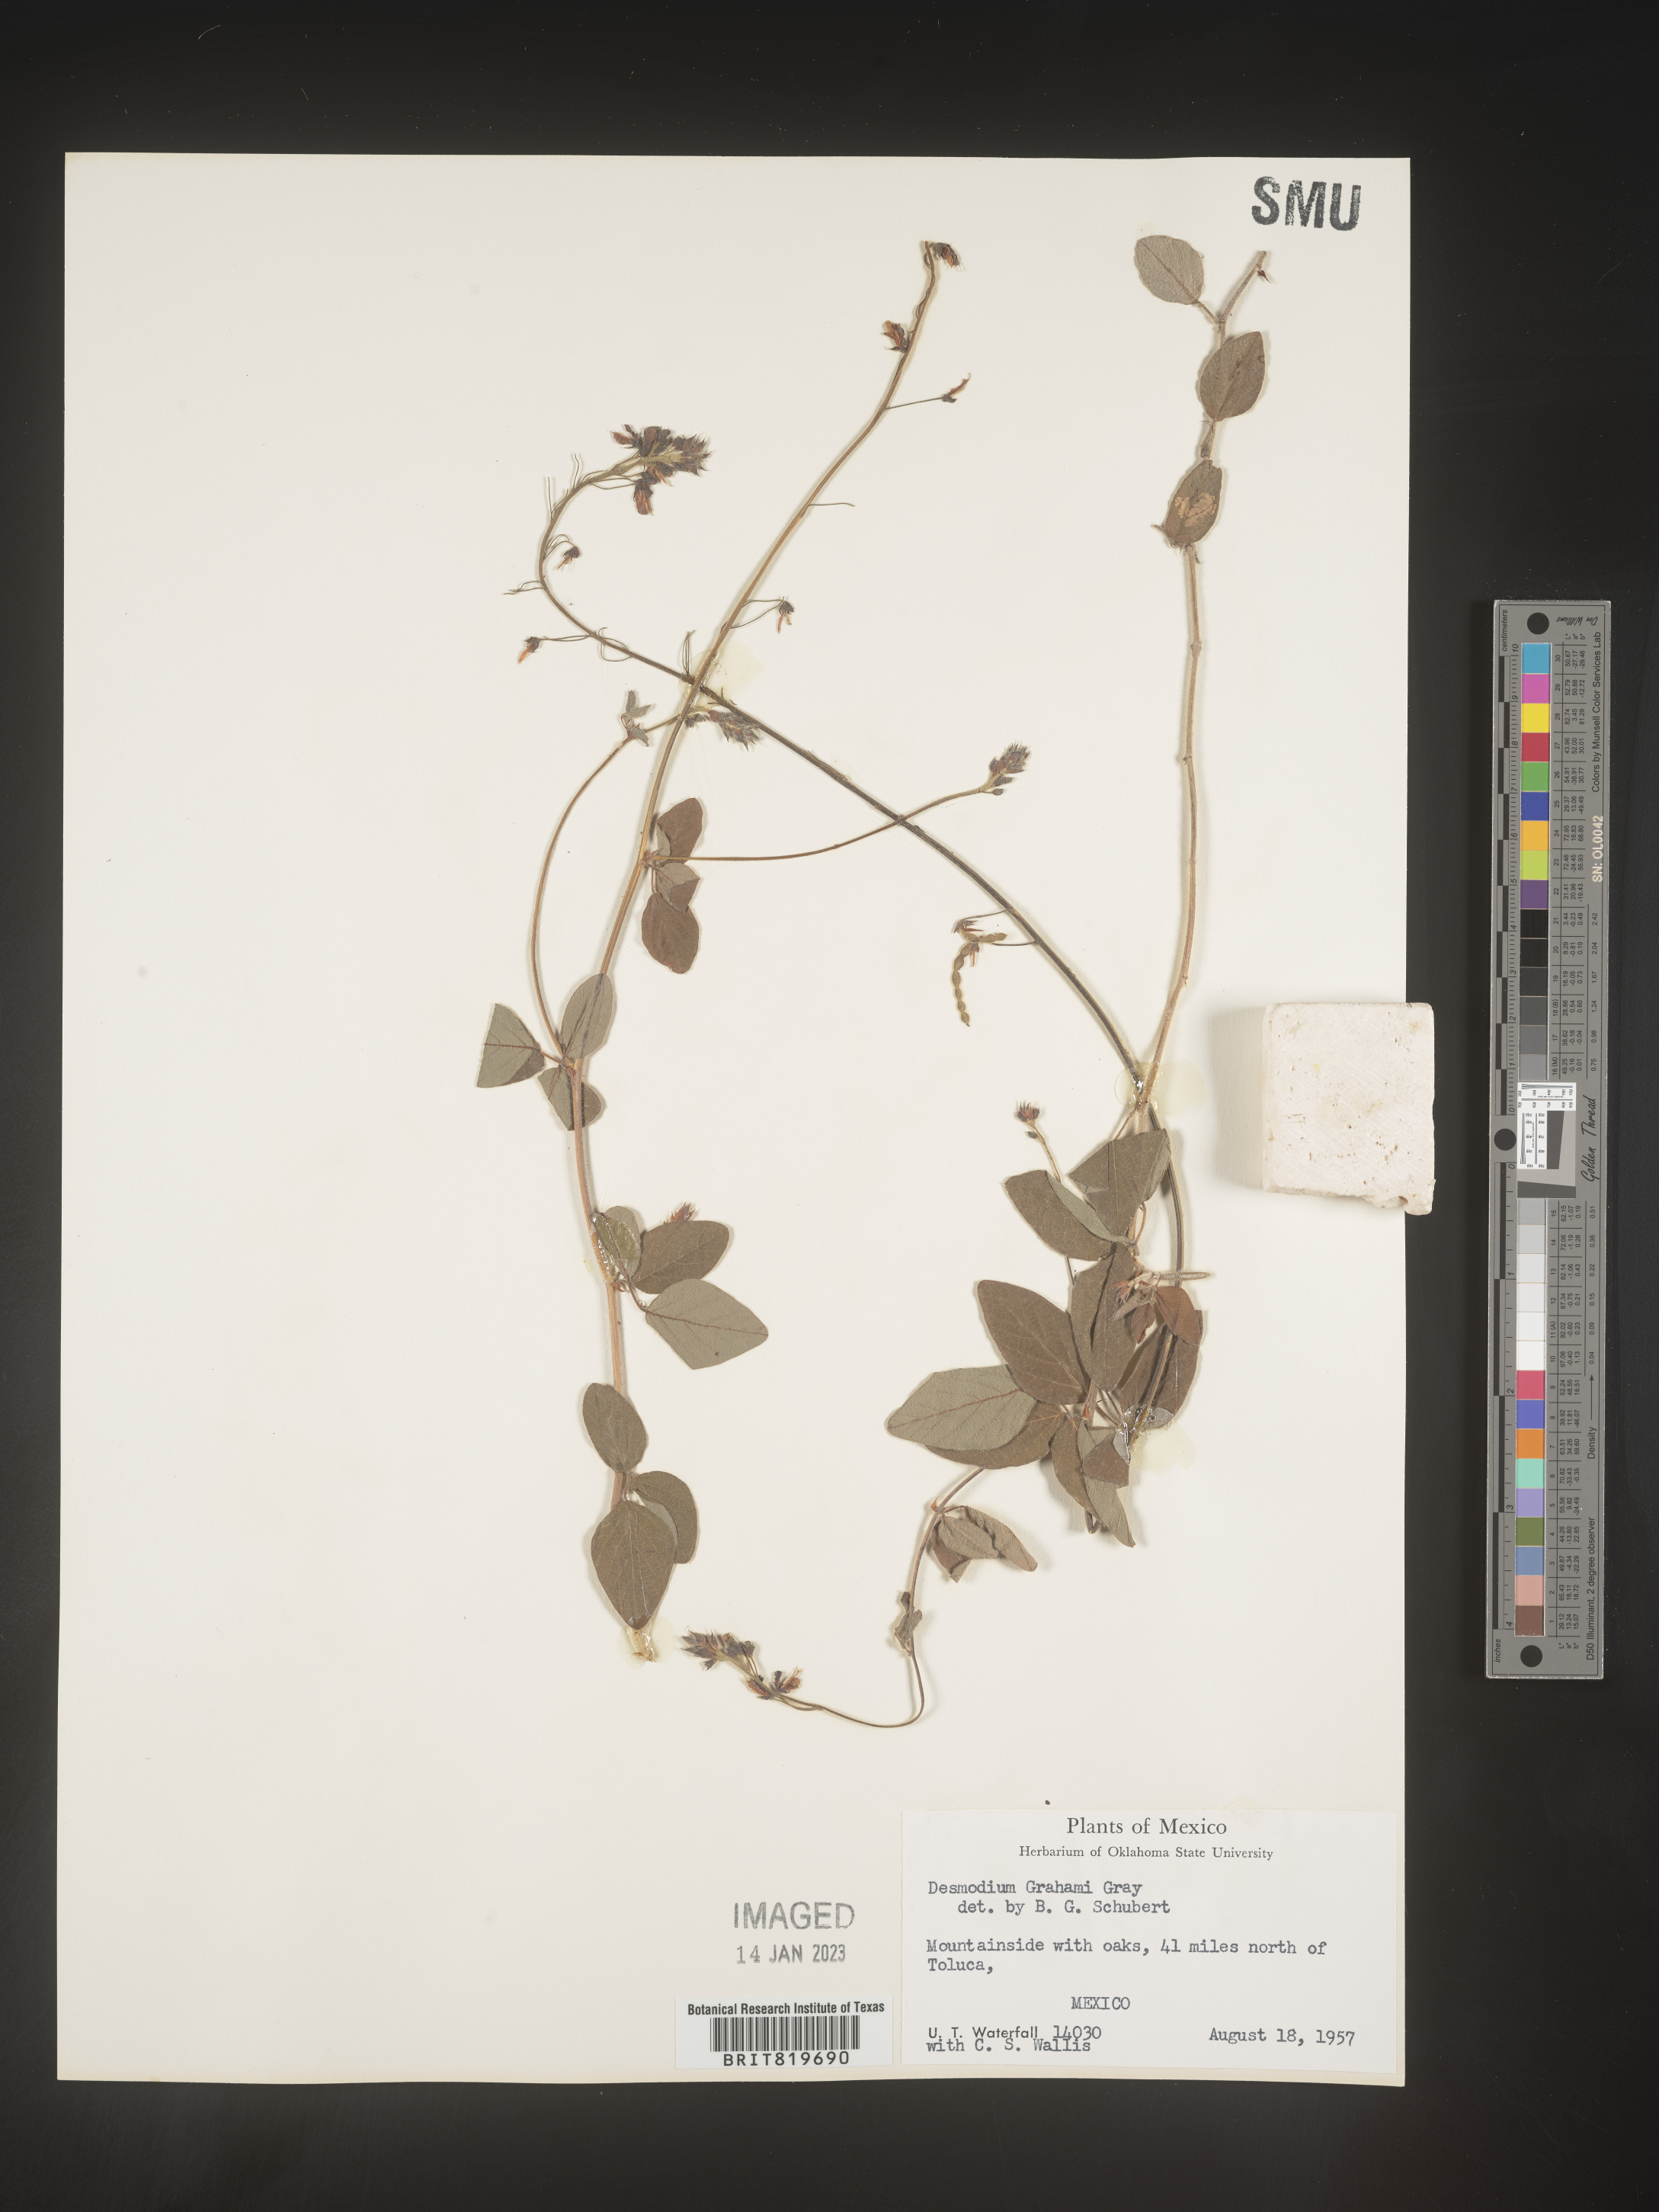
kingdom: Plantae
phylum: Tracheophyta
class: Magnoliopsida
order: Fabales
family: Fabaceae
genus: Desmodium
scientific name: Desmodium
